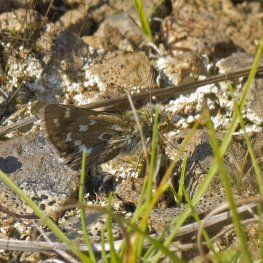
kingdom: Animalia
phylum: Arthropoda
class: Insecta
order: Lepidoptera
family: Hesperiidae
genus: Hesperia
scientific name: Hesperia comma
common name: Common Branded Skipper
